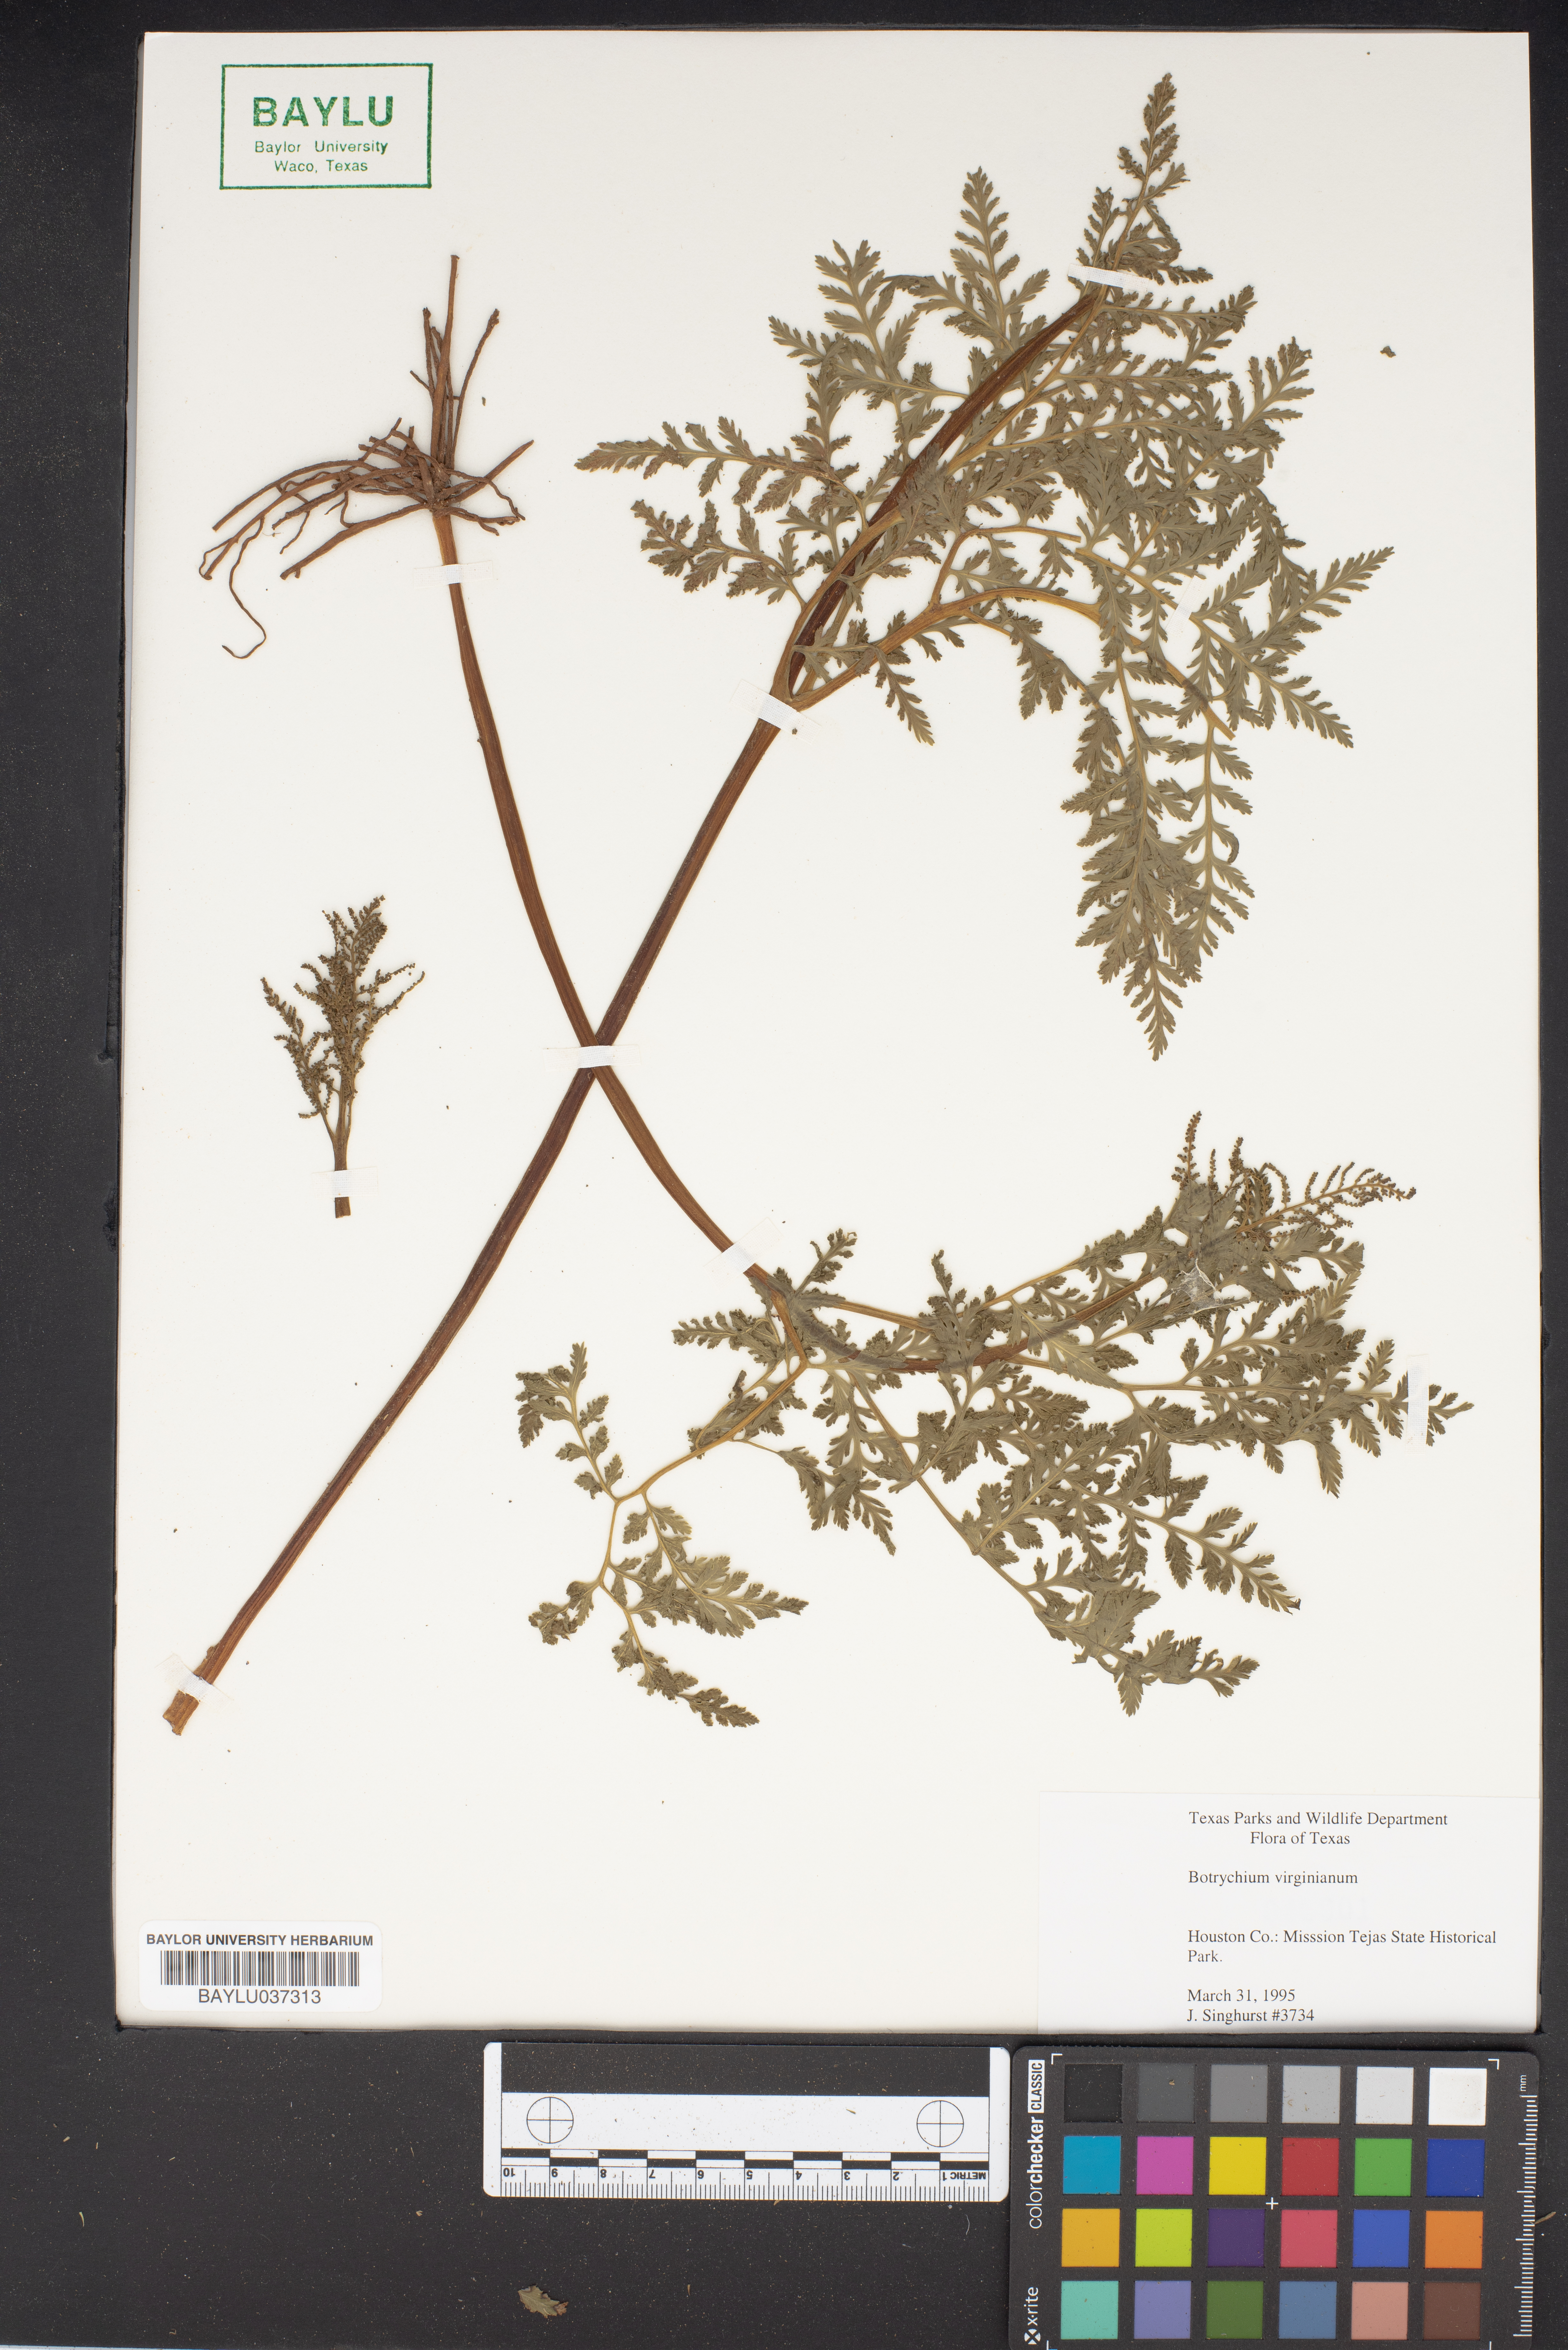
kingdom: Plantae
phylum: Tracheophyta
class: Polypodiopsida
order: Ophioglossales
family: Ophioglossaceae
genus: Botrypus
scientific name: Botrypus virginianus
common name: Common grapefern
